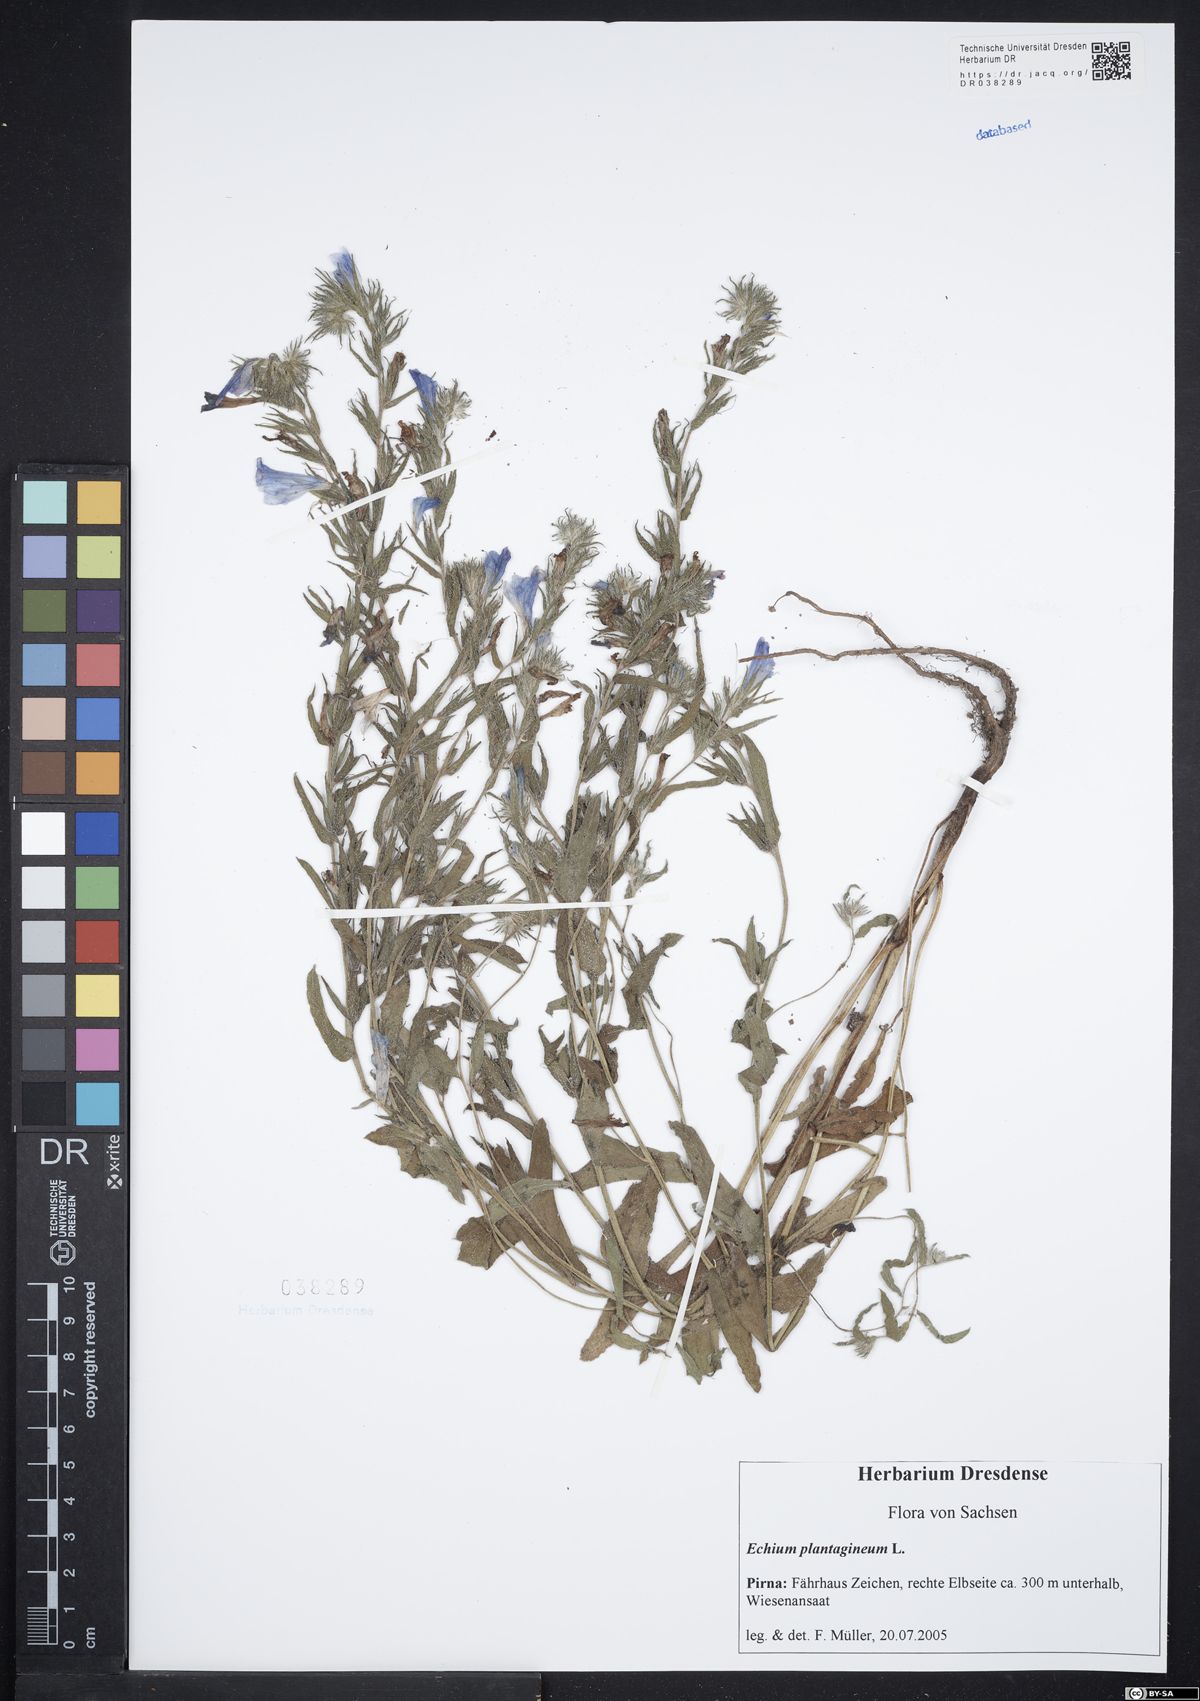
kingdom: Plantae
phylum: Tracheophyta
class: Magnoliopsida
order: Boraginales
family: Boraginaceae
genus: Echium
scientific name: Echium plantagineum
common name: Purple viper's-bugloss
